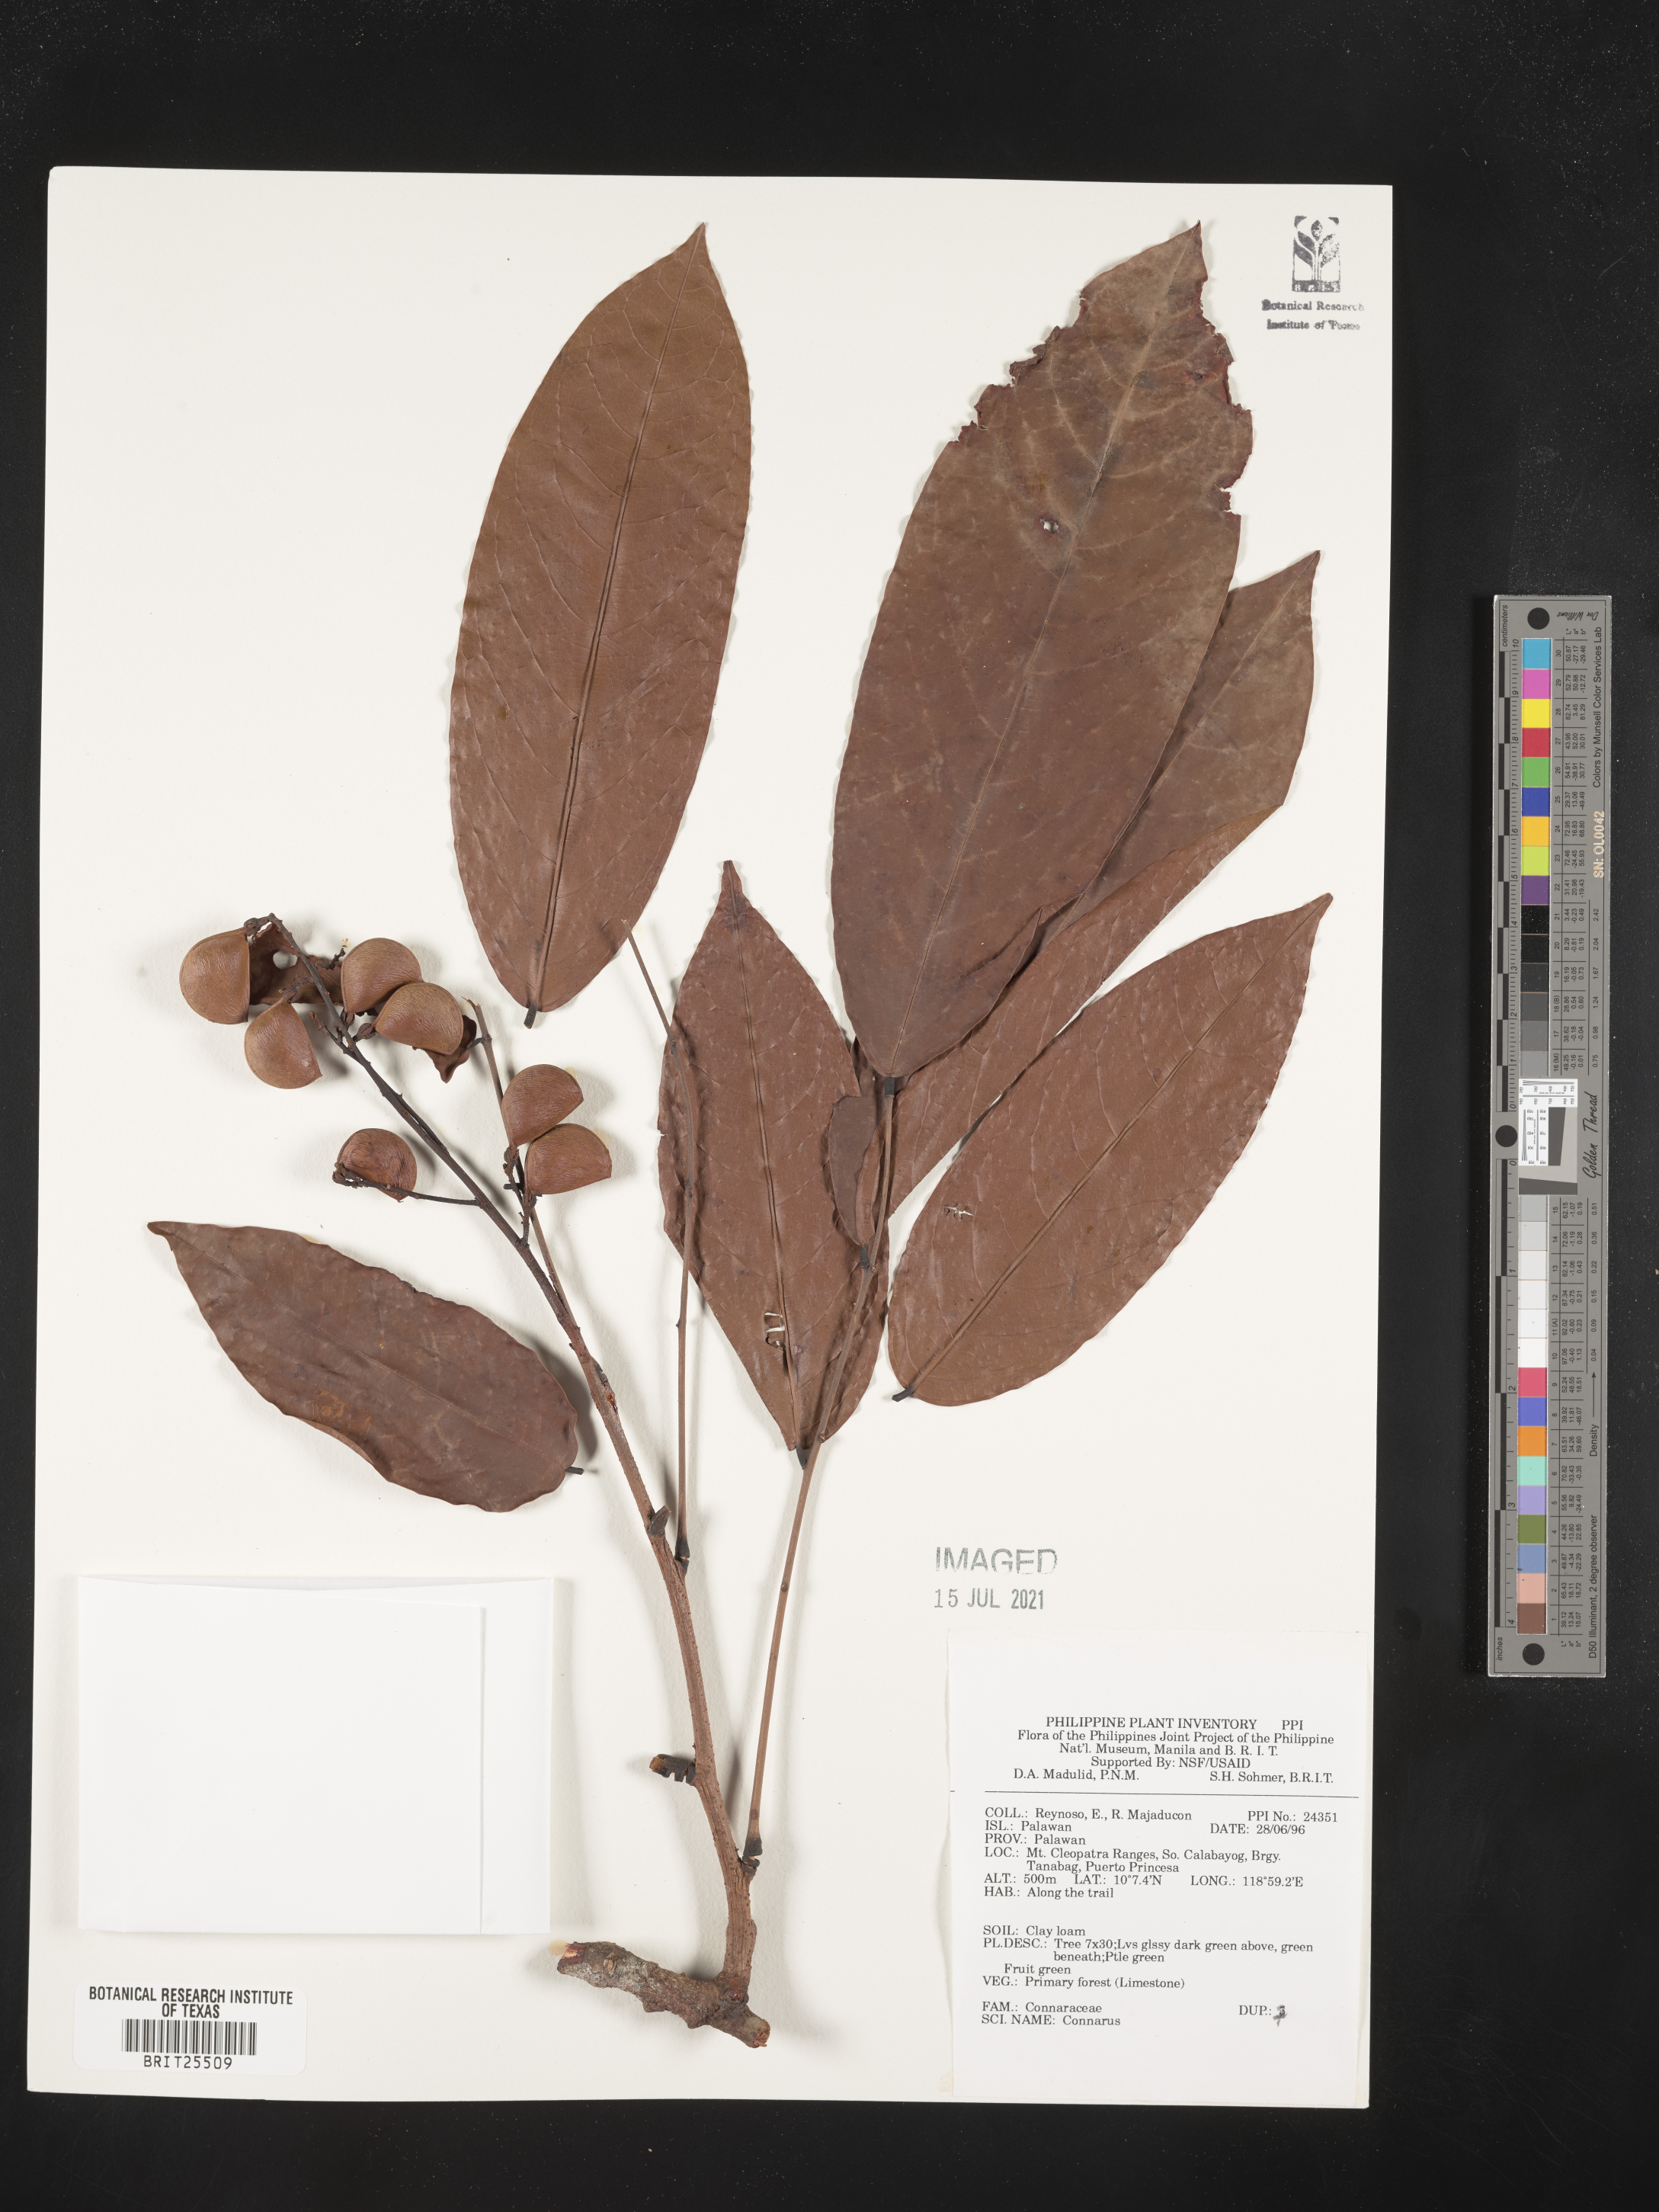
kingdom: Plantae
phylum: Tracheophyta
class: Magnoliopsida
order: Oxalidales
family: Connaraceae
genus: Connarus
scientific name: Connarus
